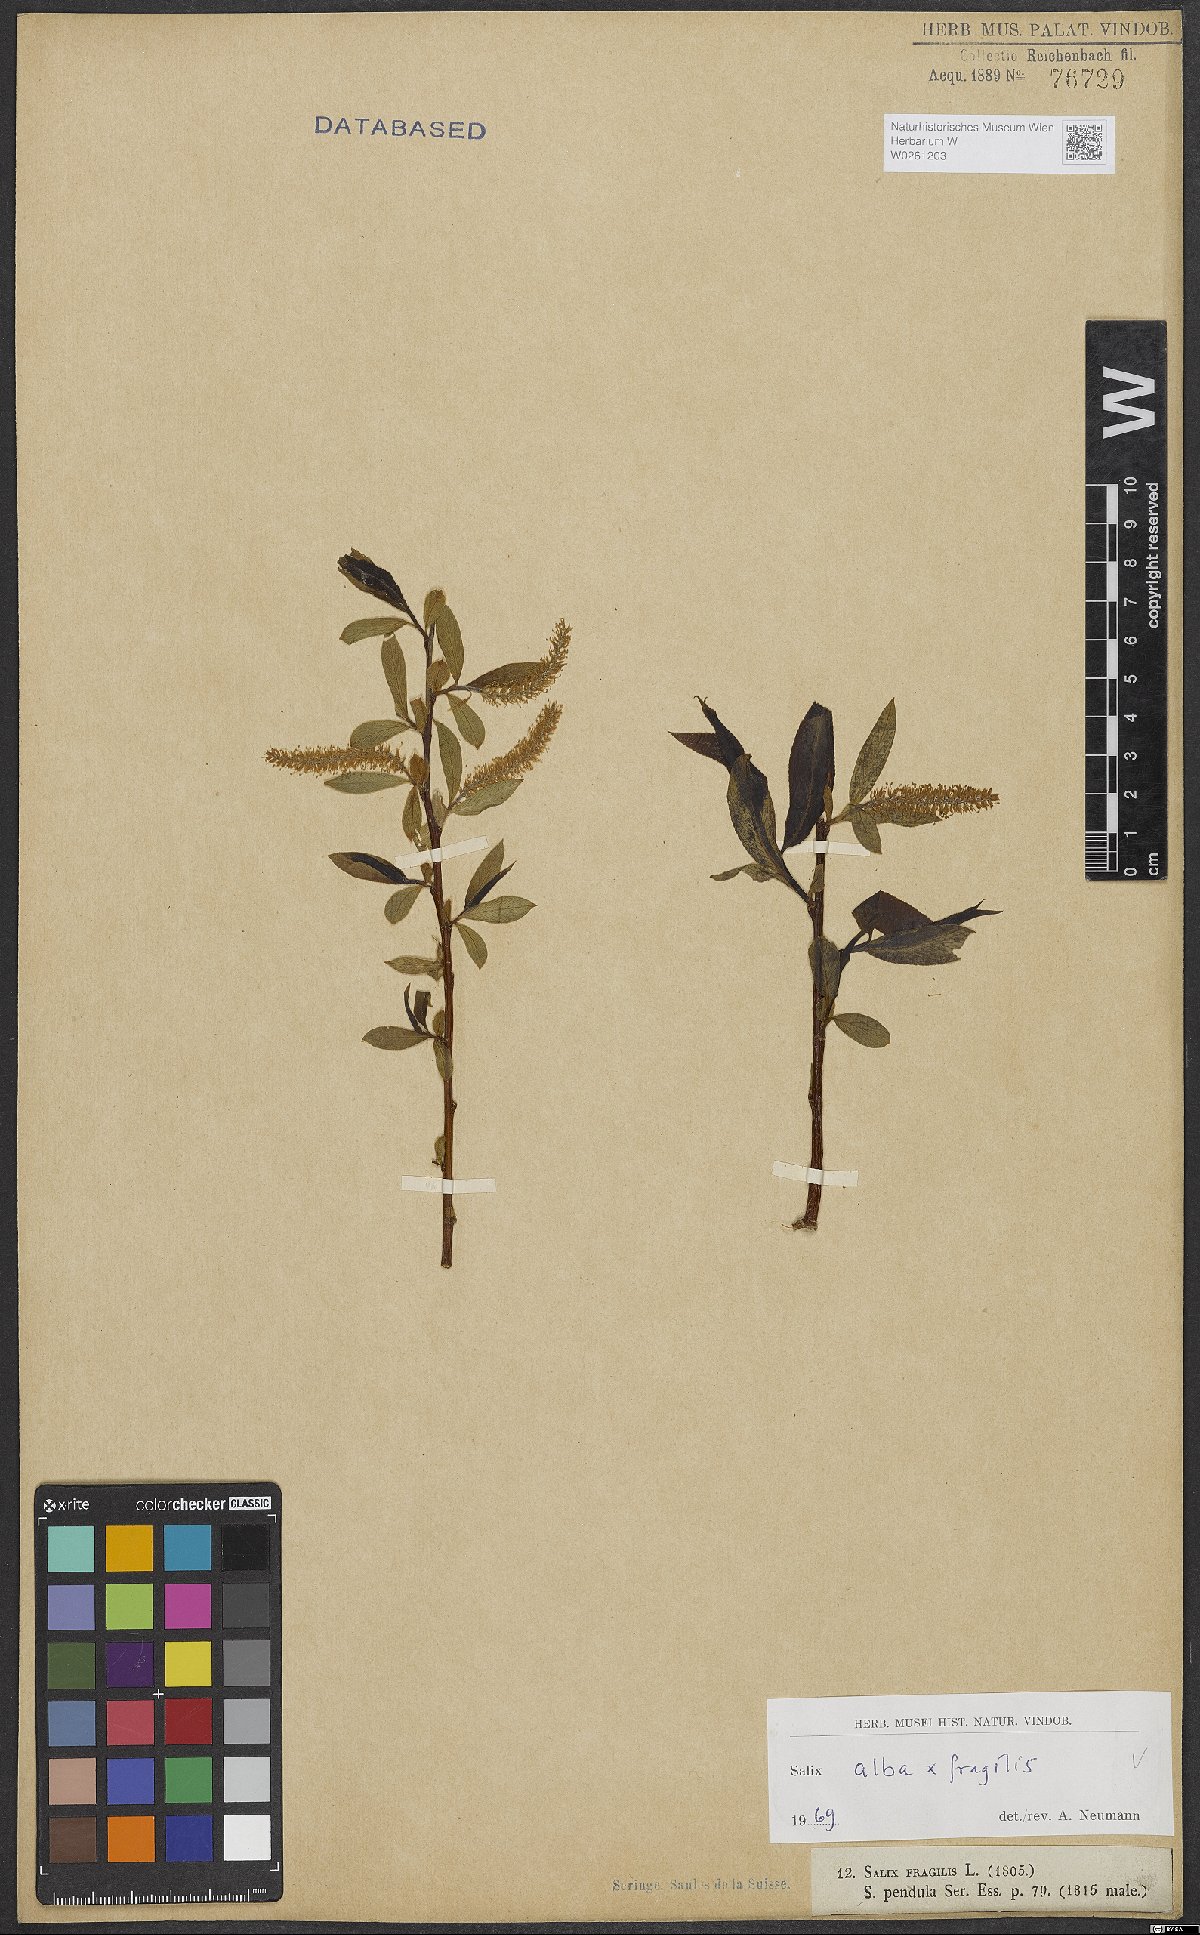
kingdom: Plantae
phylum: Tracheophyta
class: Magnoliopsida
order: Malpighiales
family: Salicaceae
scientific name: Salicaceae
